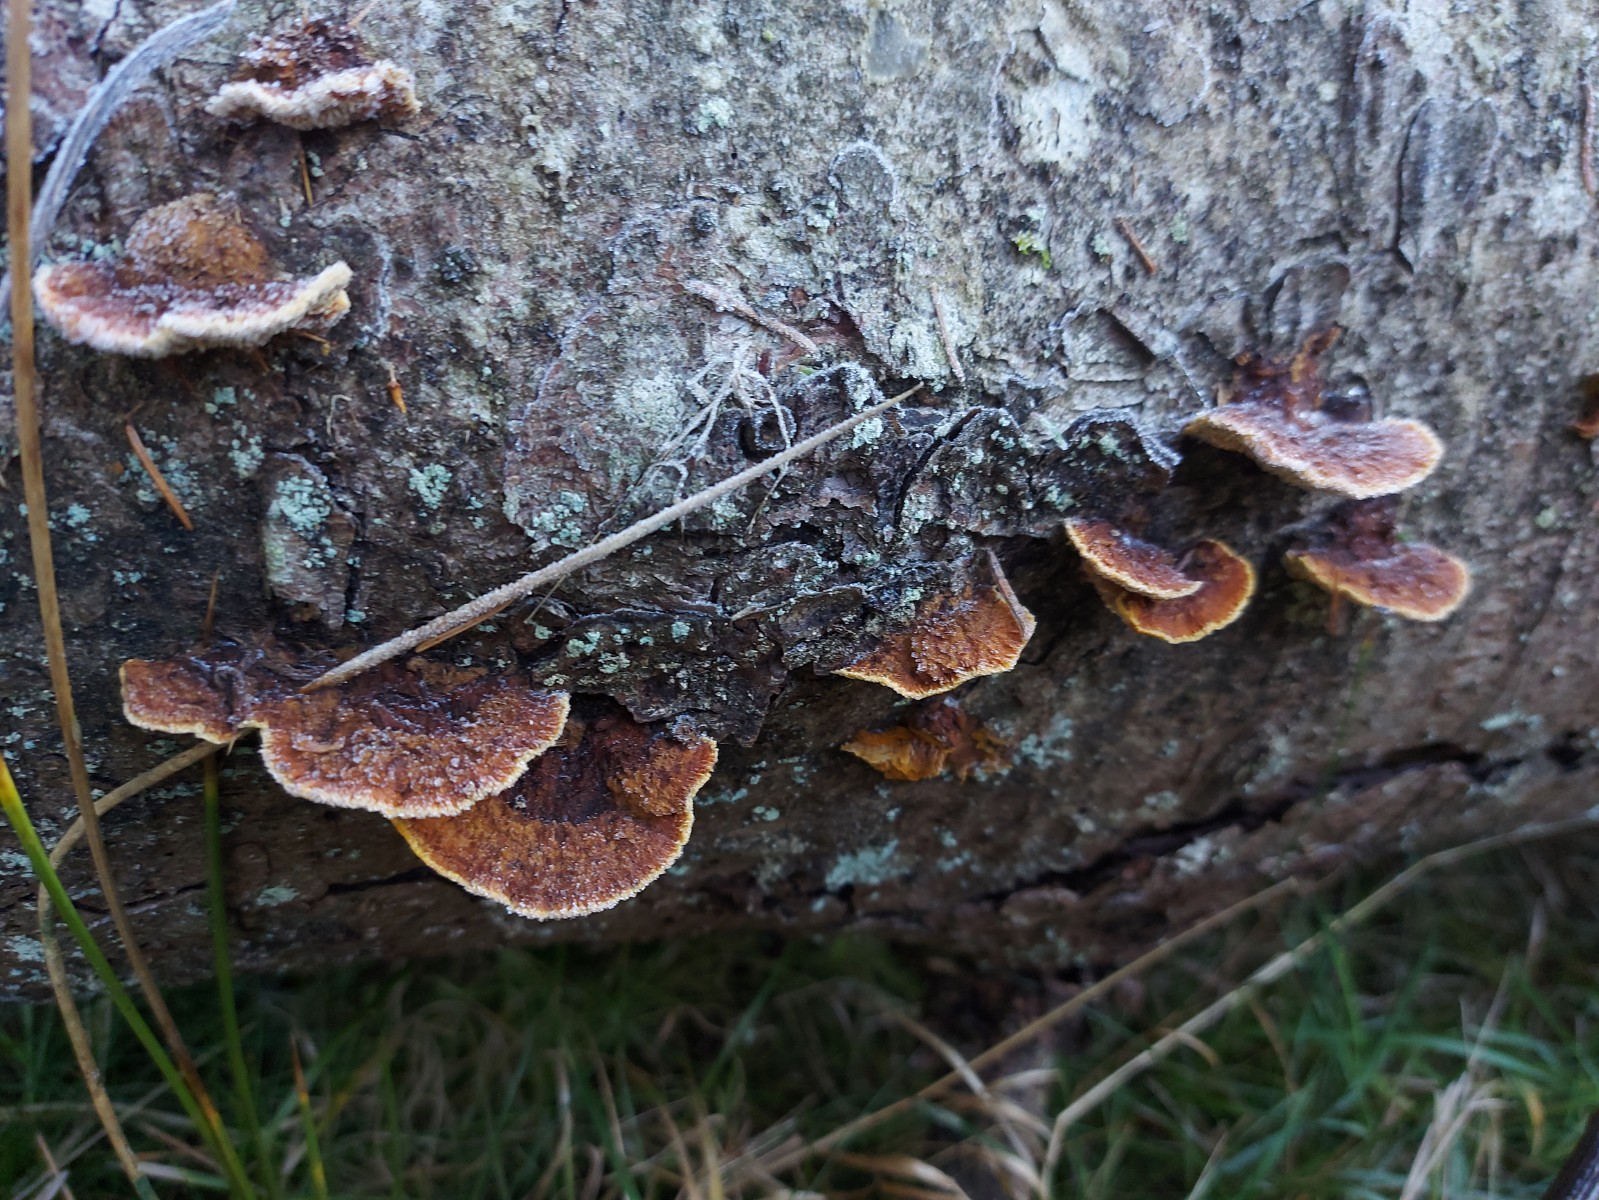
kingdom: Fungi
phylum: Basidiomycota
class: Agaricomycetes
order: Gloeophyllales
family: Gloeophyllaceae
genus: Gloeophyllum
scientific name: Gloeophyllum sepiarium
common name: fyrre-korkhat
